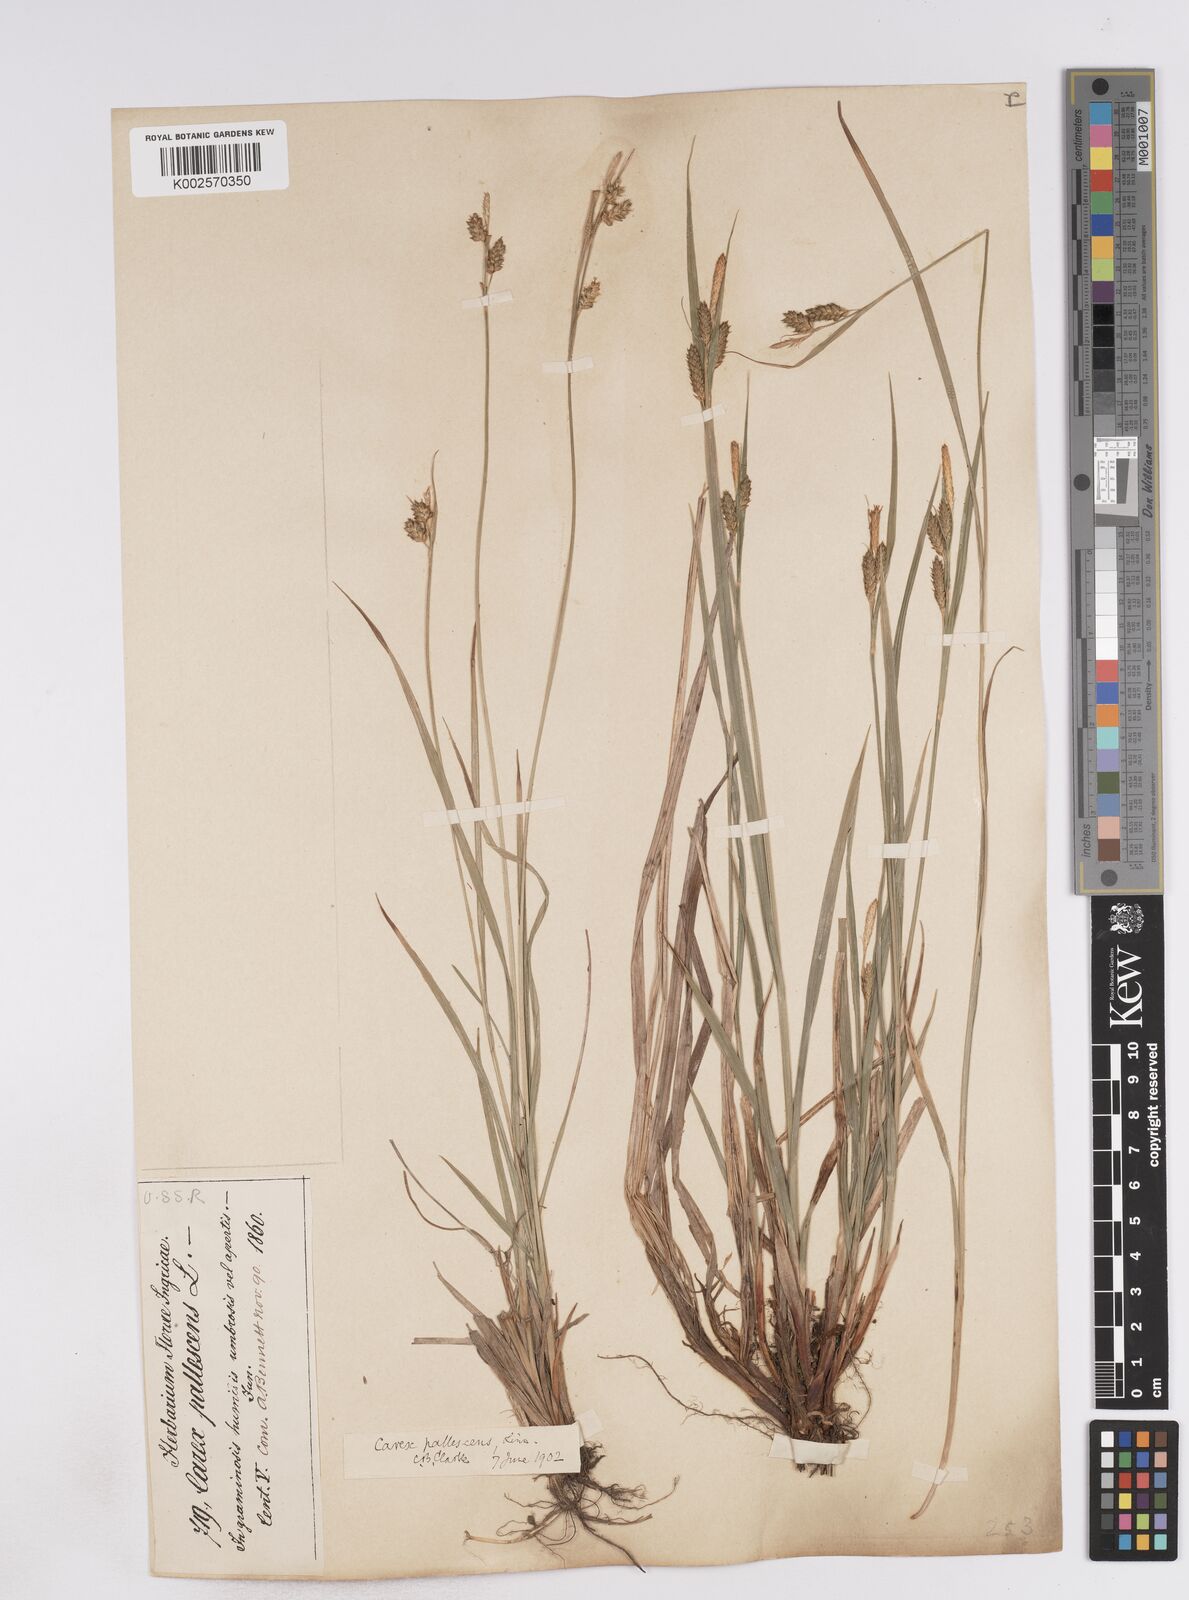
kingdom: Plantae
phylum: Tracheophyta
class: Liliopsida
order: Poales
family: Cyperaceae
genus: Carex
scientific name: Carex pallescens
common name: Pale sedge
